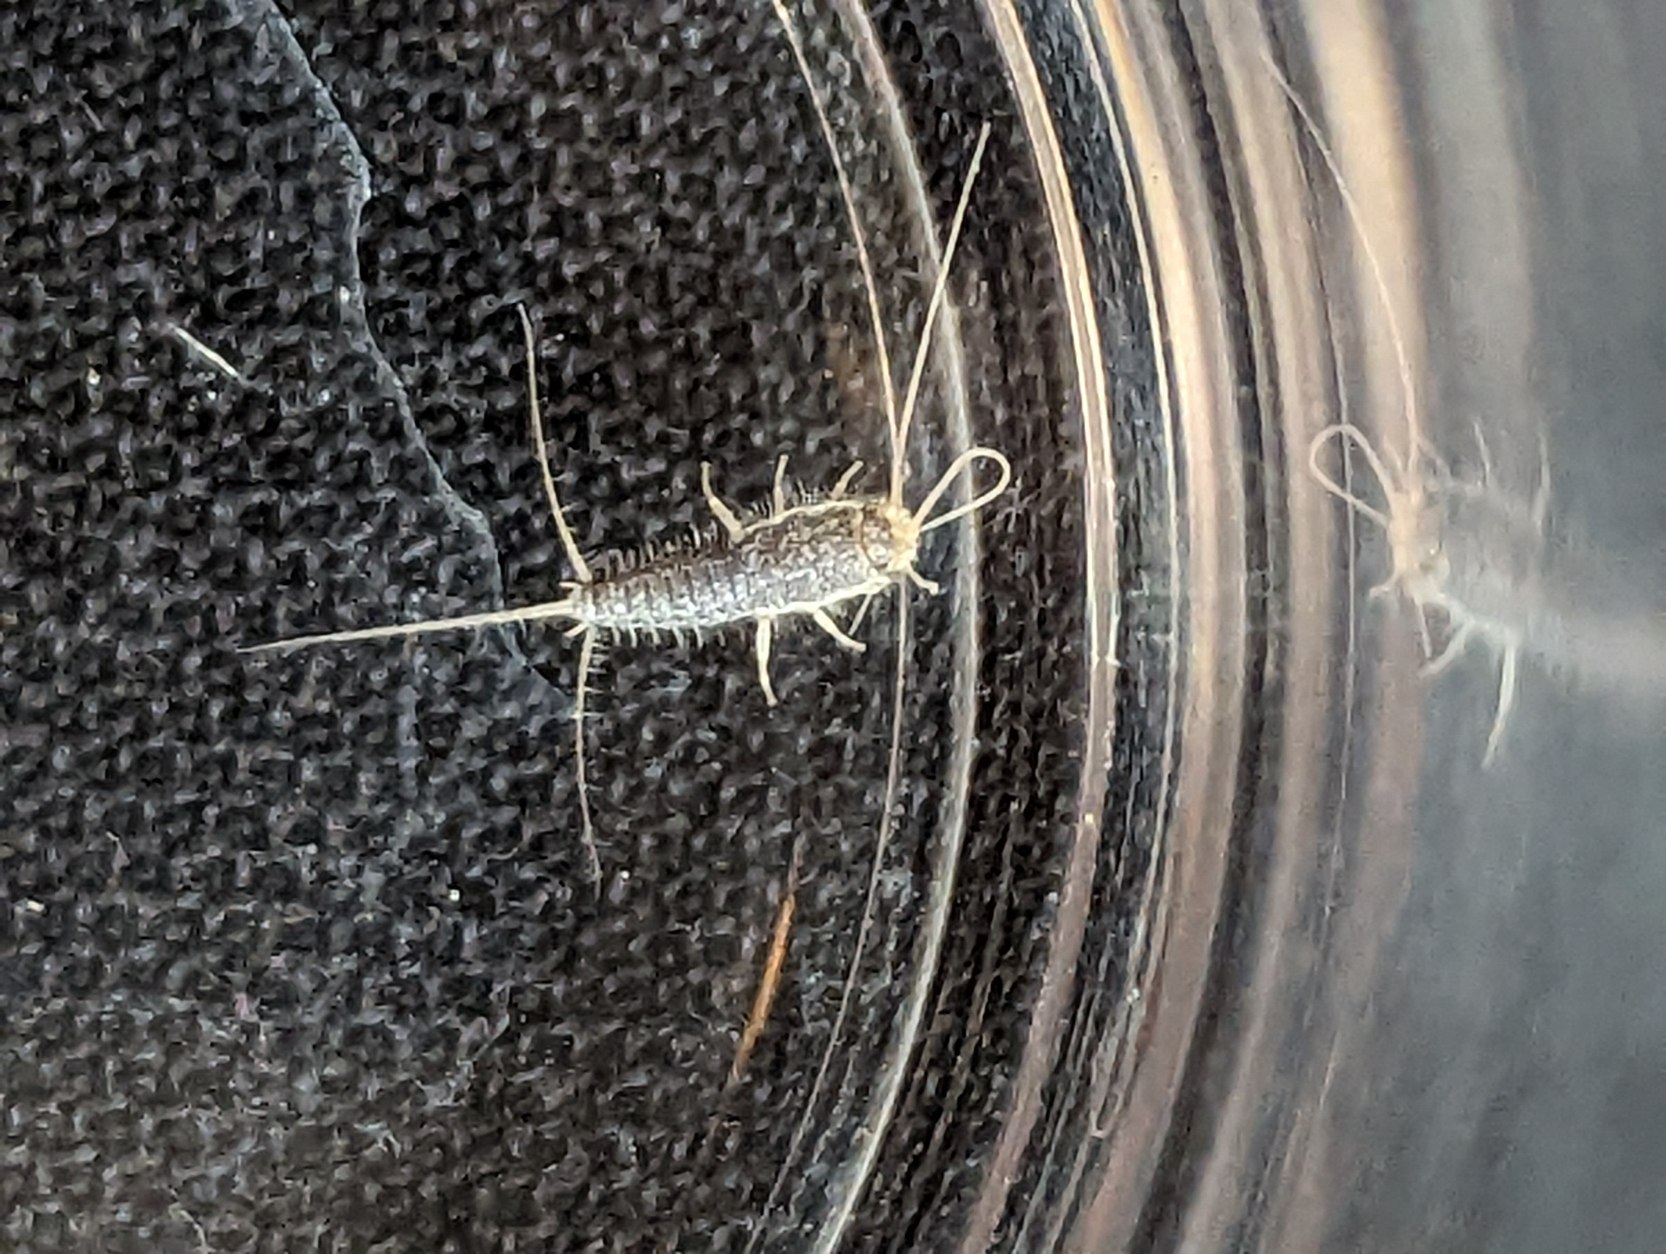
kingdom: Animalia
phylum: Arthropoda
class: Insecta
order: Zygentoma
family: Lepismatidae
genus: Ctenolepisma
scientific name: Ctenolepisma longicaudatum
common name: Skægget sølvkræ
